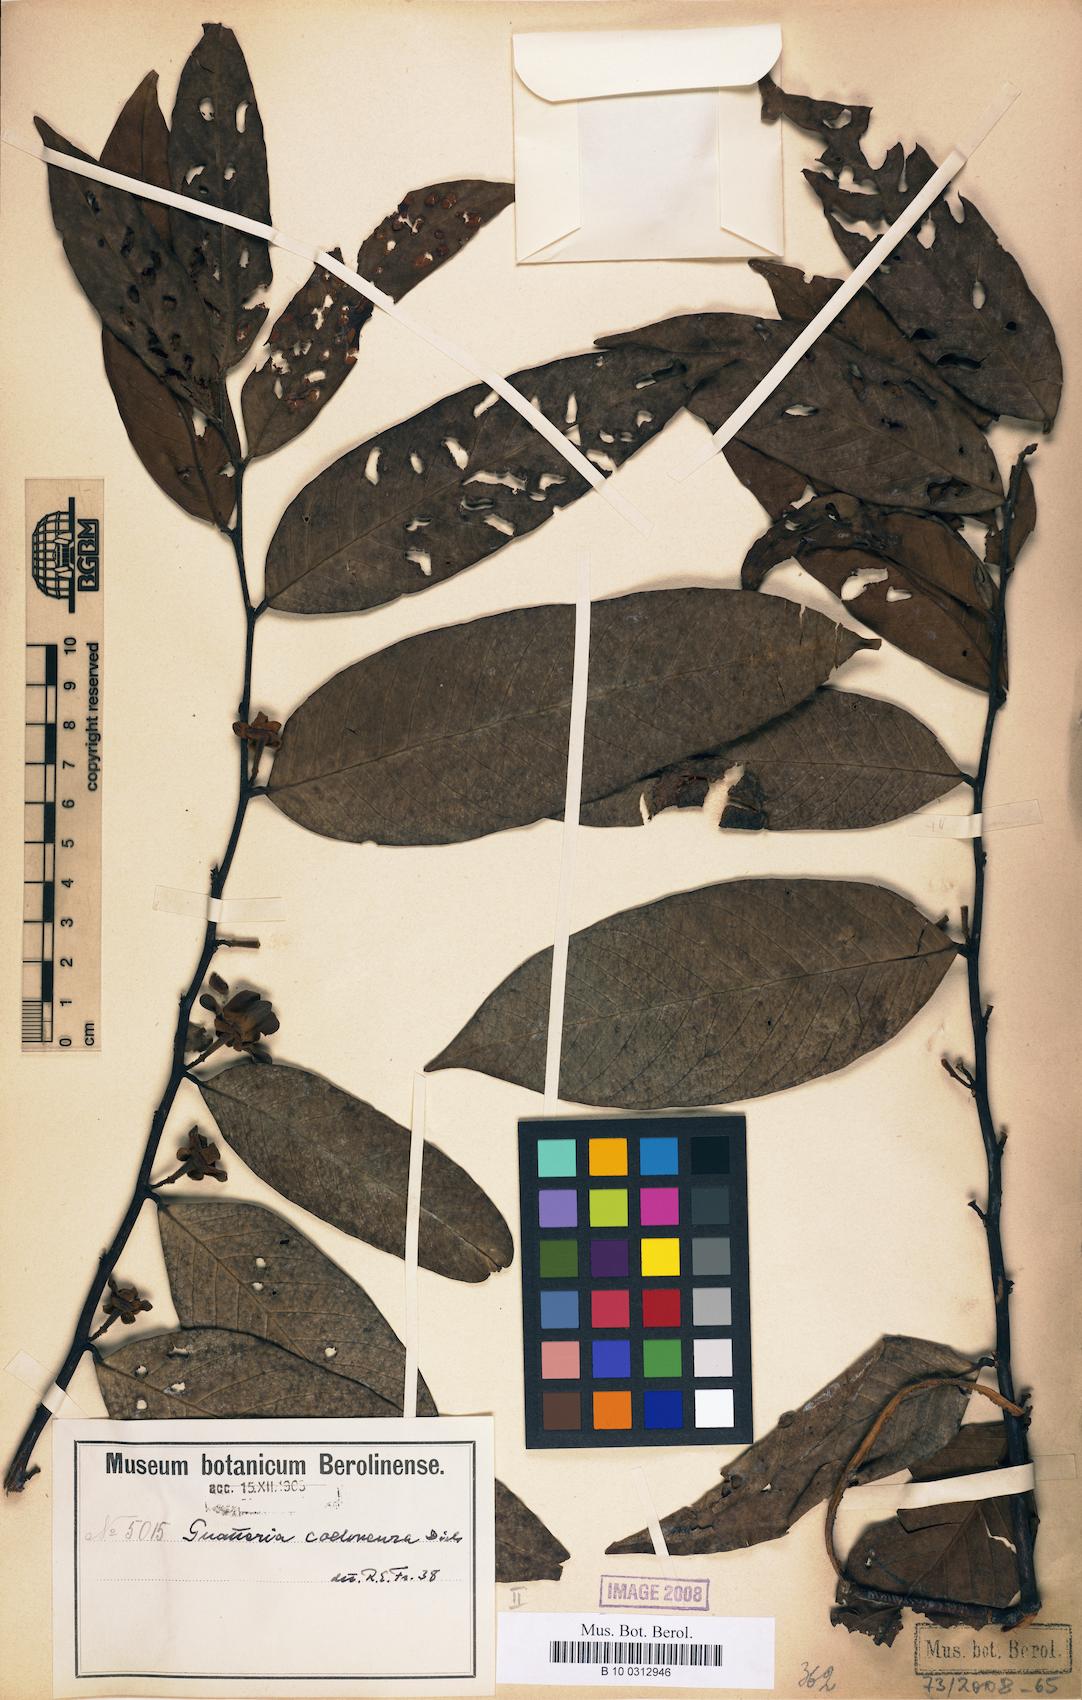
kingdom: Plantae
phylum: Tracheophyta
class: Magnoliopsida
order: Magnoliales
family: Annonaceae
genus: Guatteria
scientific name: Guatteria punctata
